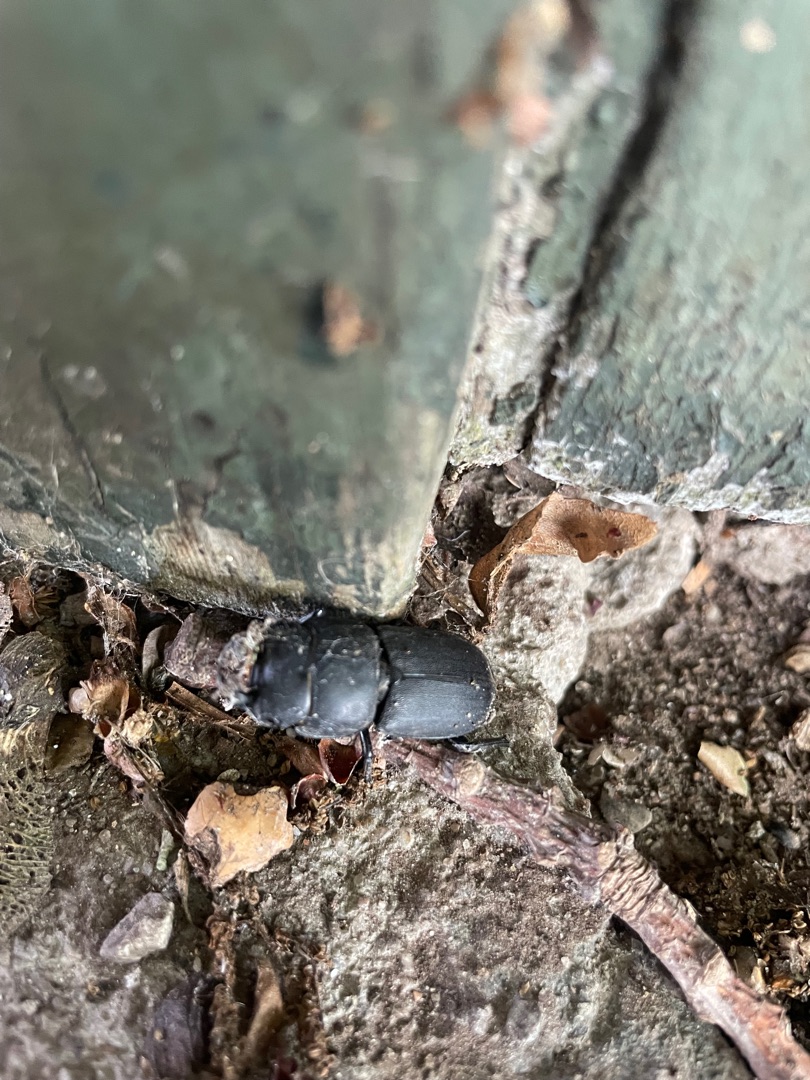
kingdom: Animalia
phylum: Arthropoda
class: Insecta
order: Coleoptera
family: Lucanidae
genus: Dorcus
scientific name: Dorcus parallelipipedus
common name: Bøghjort
